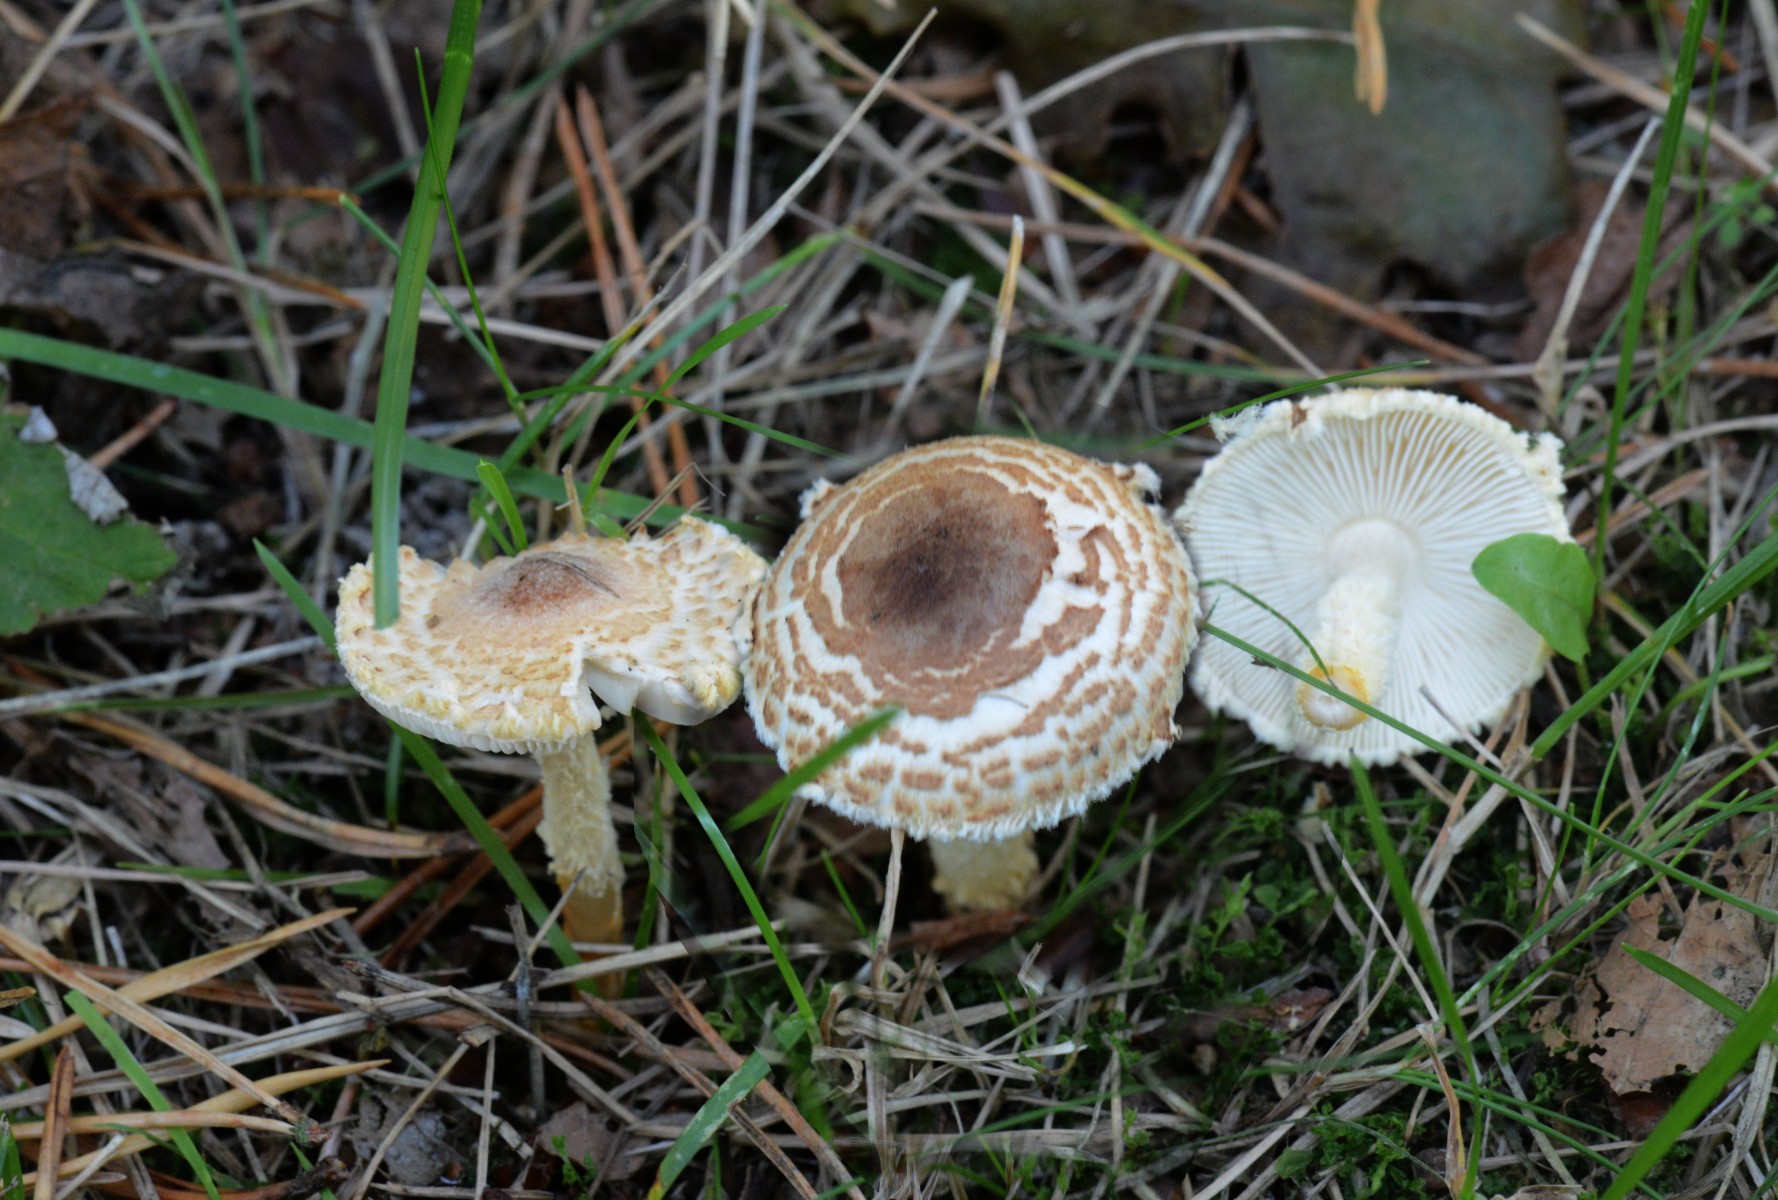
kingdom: Fungi
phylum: Basidiomycota
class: Agaricomycetes
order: Agaricales
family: Agaricaceae
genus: Lepiota
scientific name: Lepiota magnispora
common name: gulfnugget parasolhat
